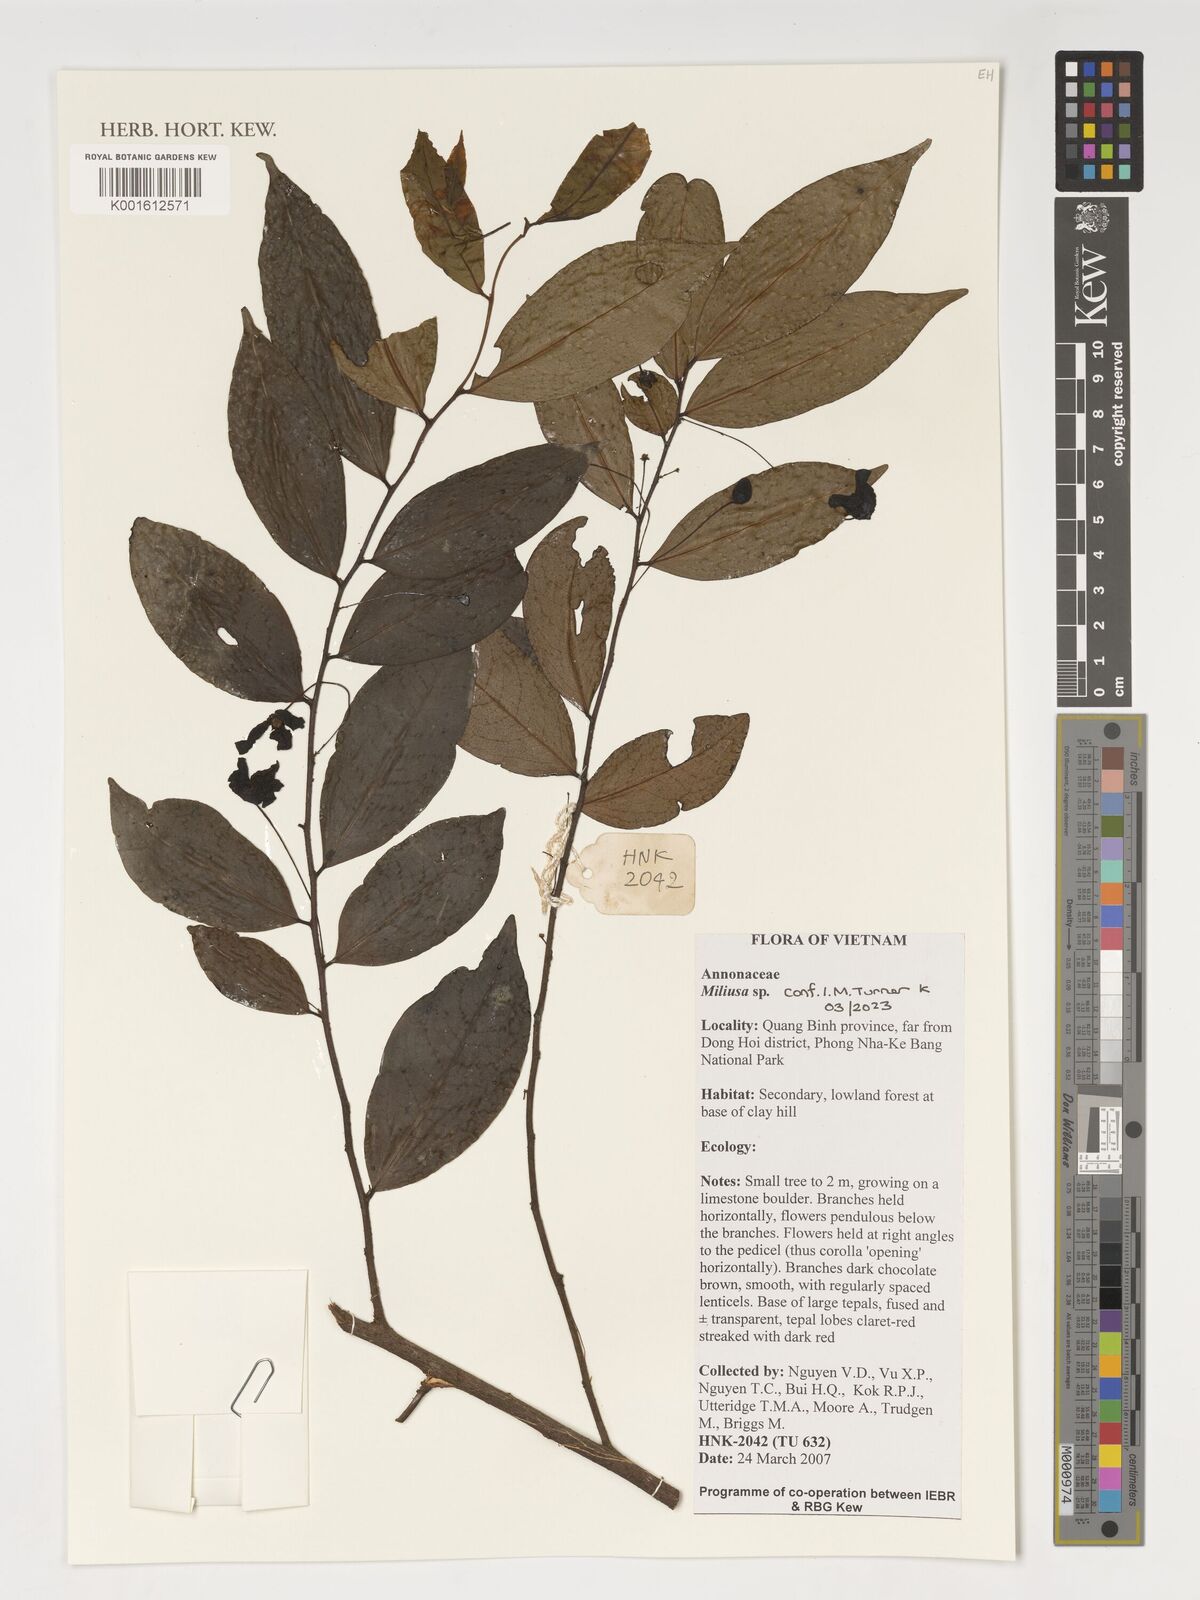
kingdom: Plantae
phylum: Tracheophyta
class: Magnoliopsida
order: Magnoliales
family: Annonaceae
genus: Miliusa
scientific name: Miliusa
